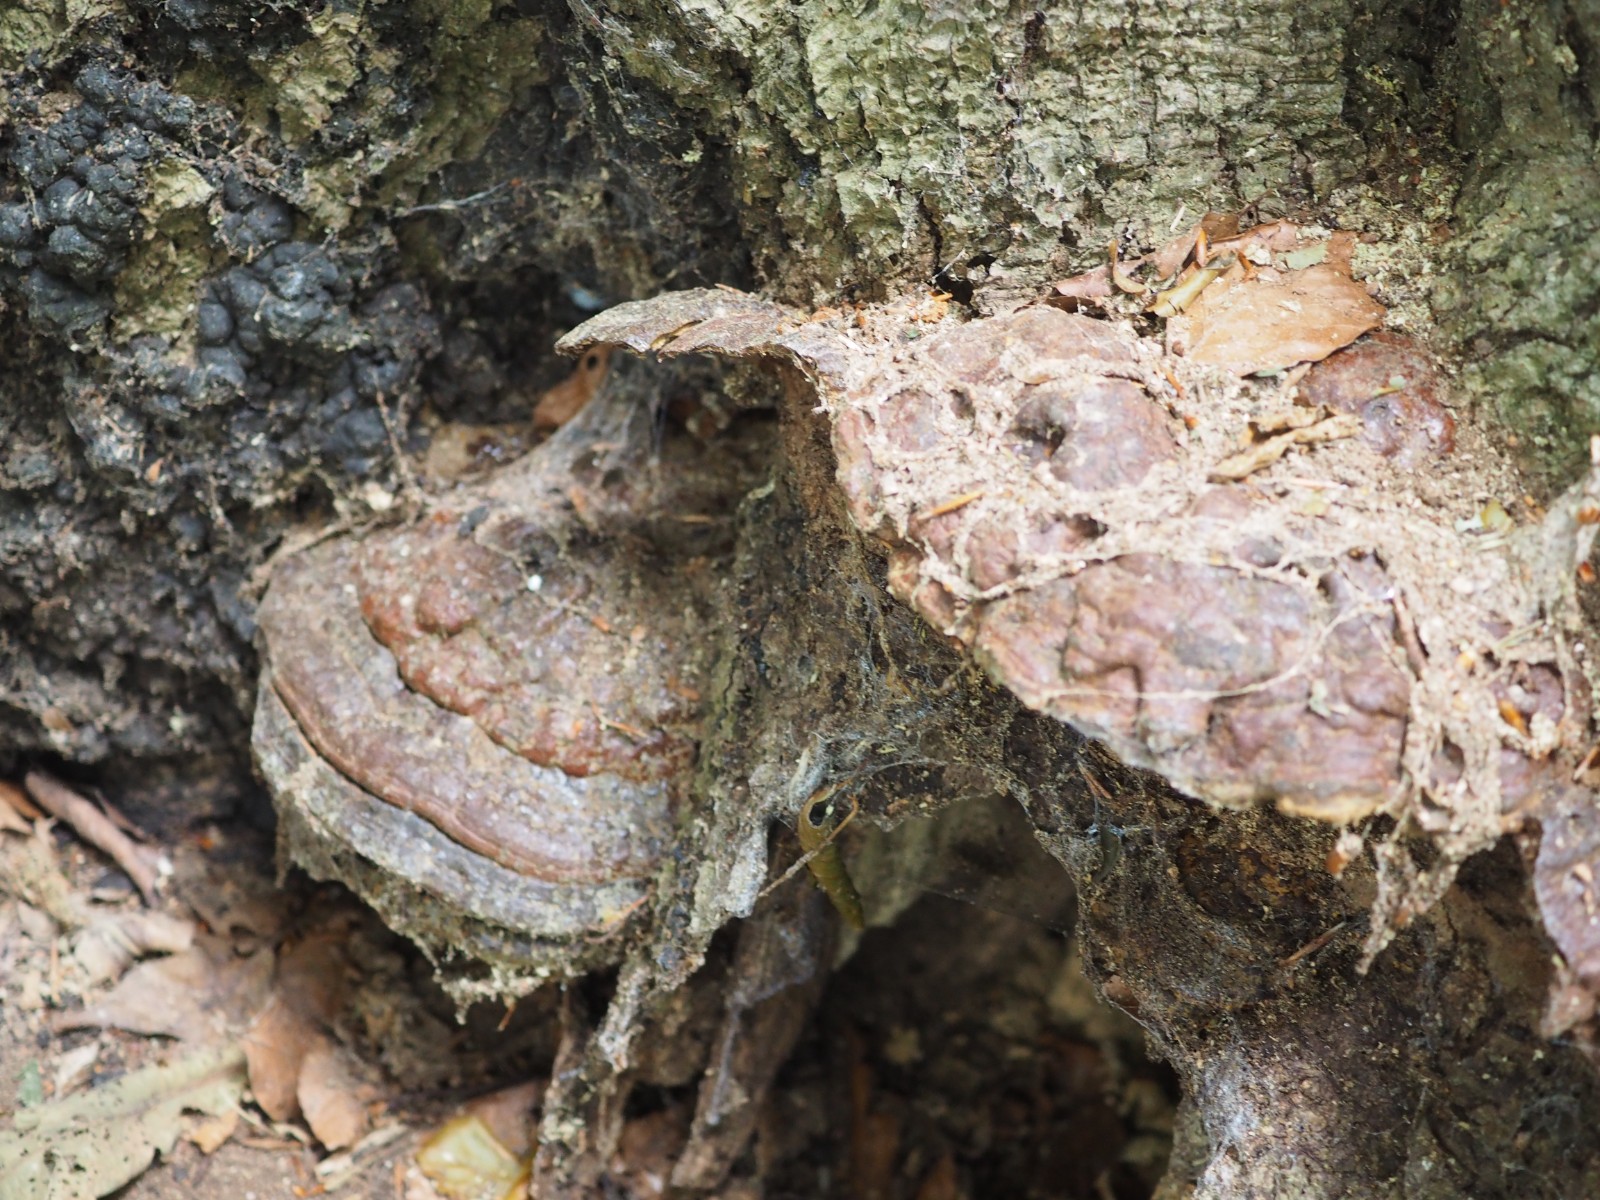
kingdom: Fungi
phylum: Basidiomycota
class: Agaricomycetes
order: Polyporales
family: Polyporaceae
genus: Ganoderma
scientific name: Ganoderma pfeifferi
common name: kobberrød lakporesvamp
